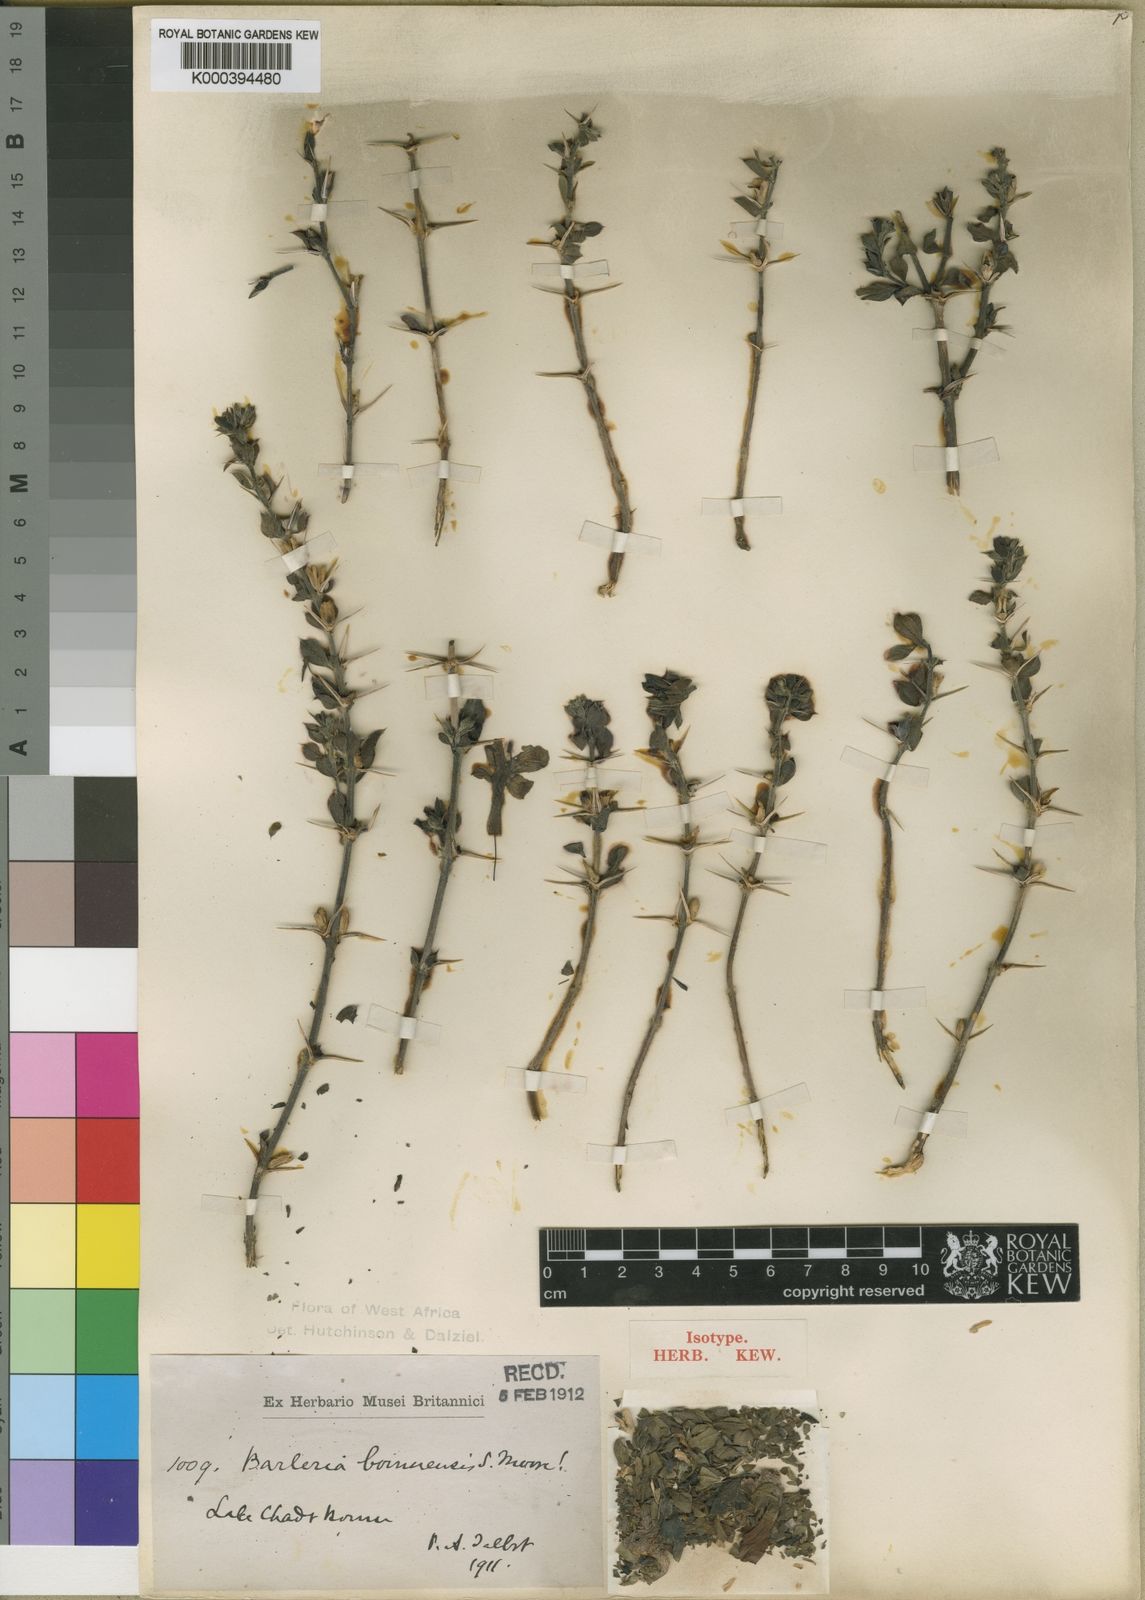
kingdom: Plantae
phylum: Tracheophyta
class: Magnoliopsida
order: Lamiales
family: Acanthaceae
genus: Barleria
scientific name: Barleria bornuensis
